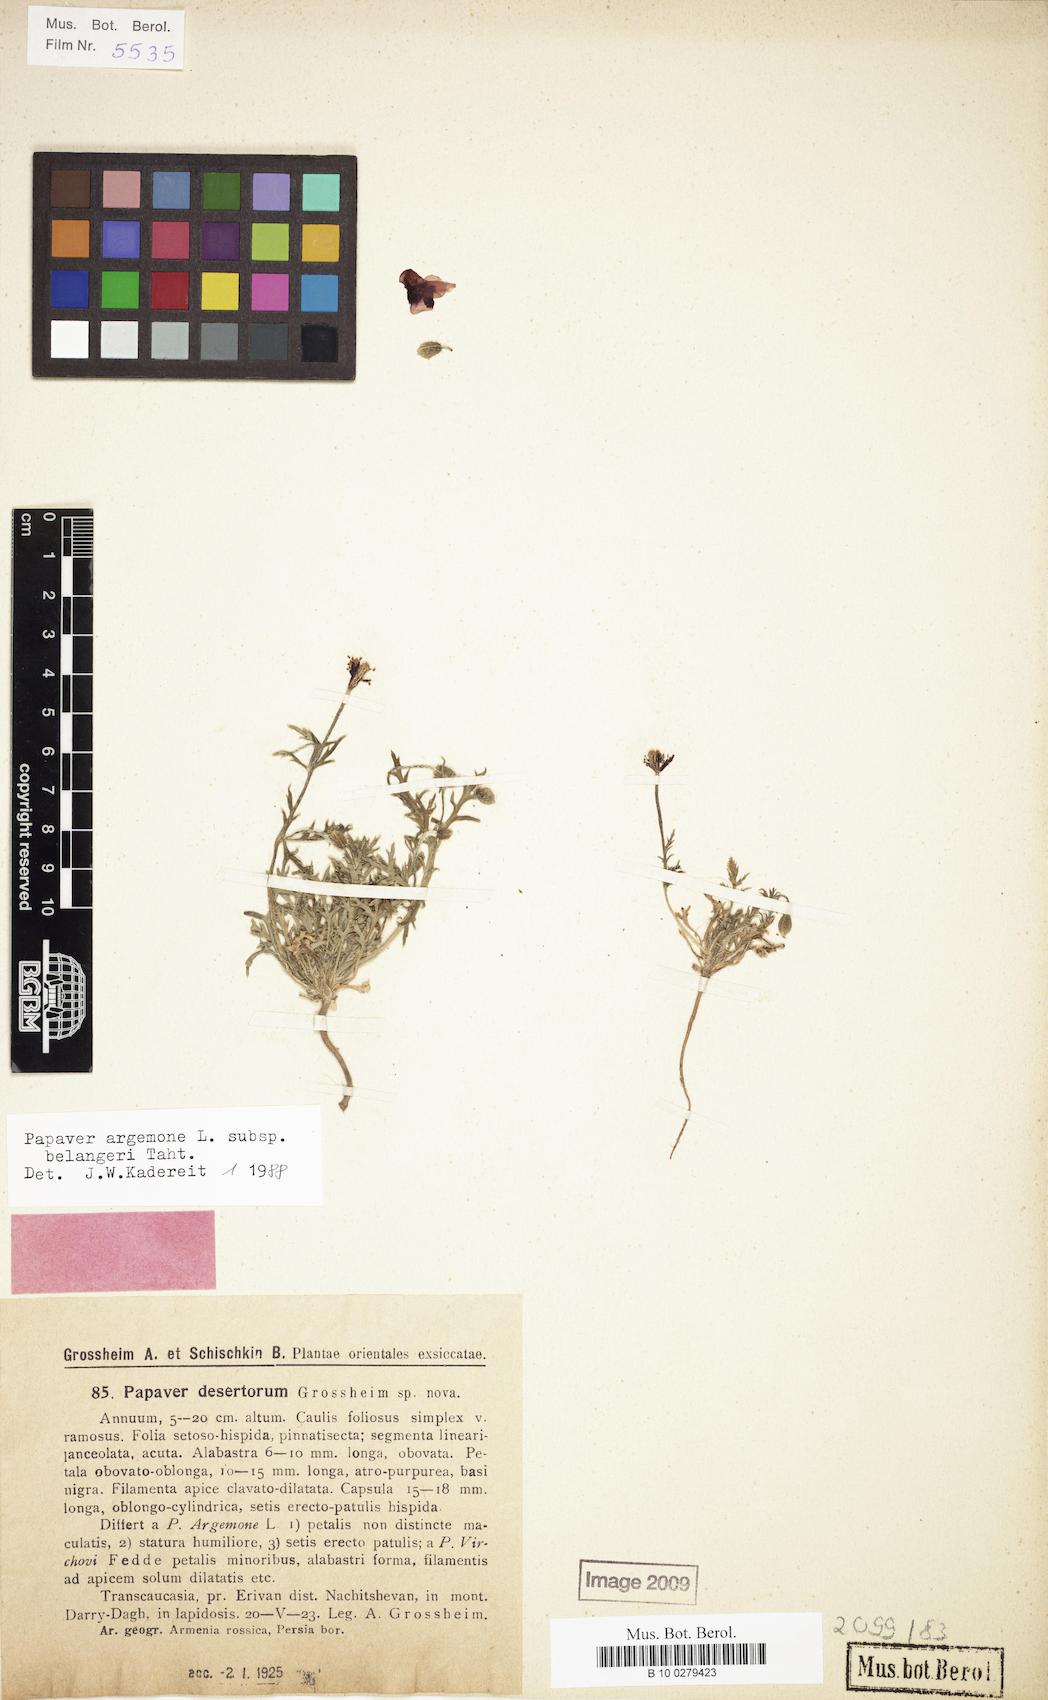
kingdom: Plantae
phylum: Tracheophyta
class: Magnoliopsida
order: Ranunculales
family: Papaveraceae
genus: Roemeria
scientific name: Roemeria minor
